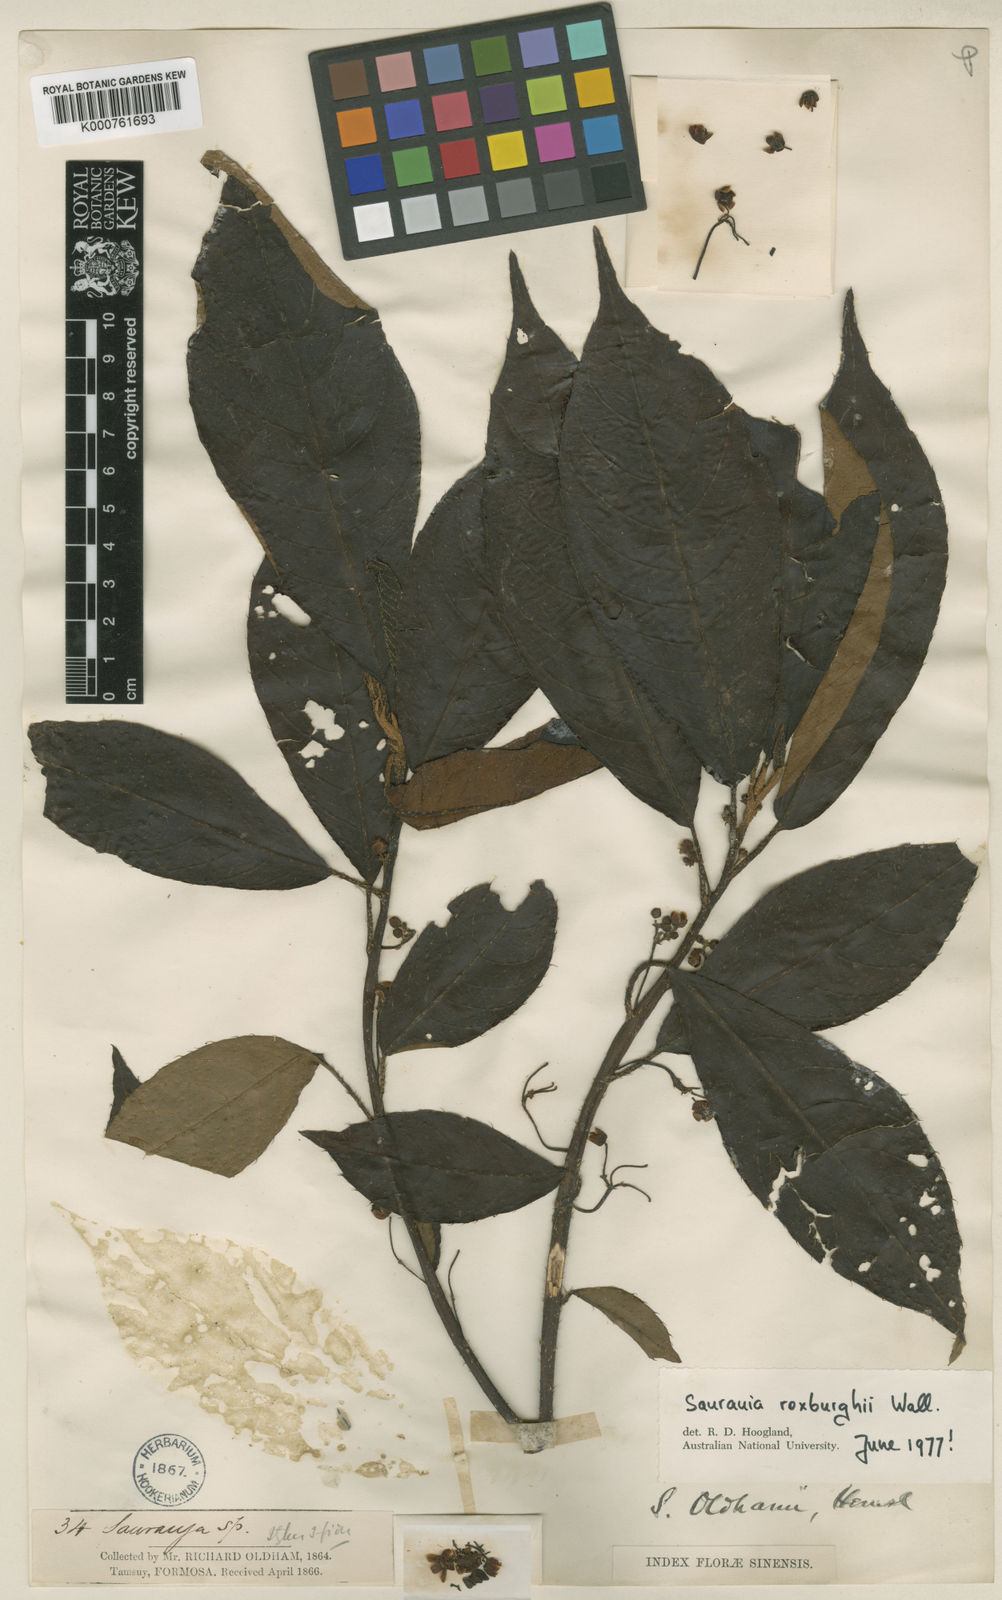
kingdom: Plantae
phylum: Tracheophyta
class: Magnoliopsida
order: Ericales
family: Actinidiaceae
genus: Saurauia
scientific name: Saurauia tristyla
